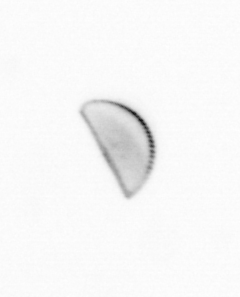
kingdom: Chromista
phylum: Ochrophyta
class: Bacillariophyceae
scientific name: Bacillariophyceae
